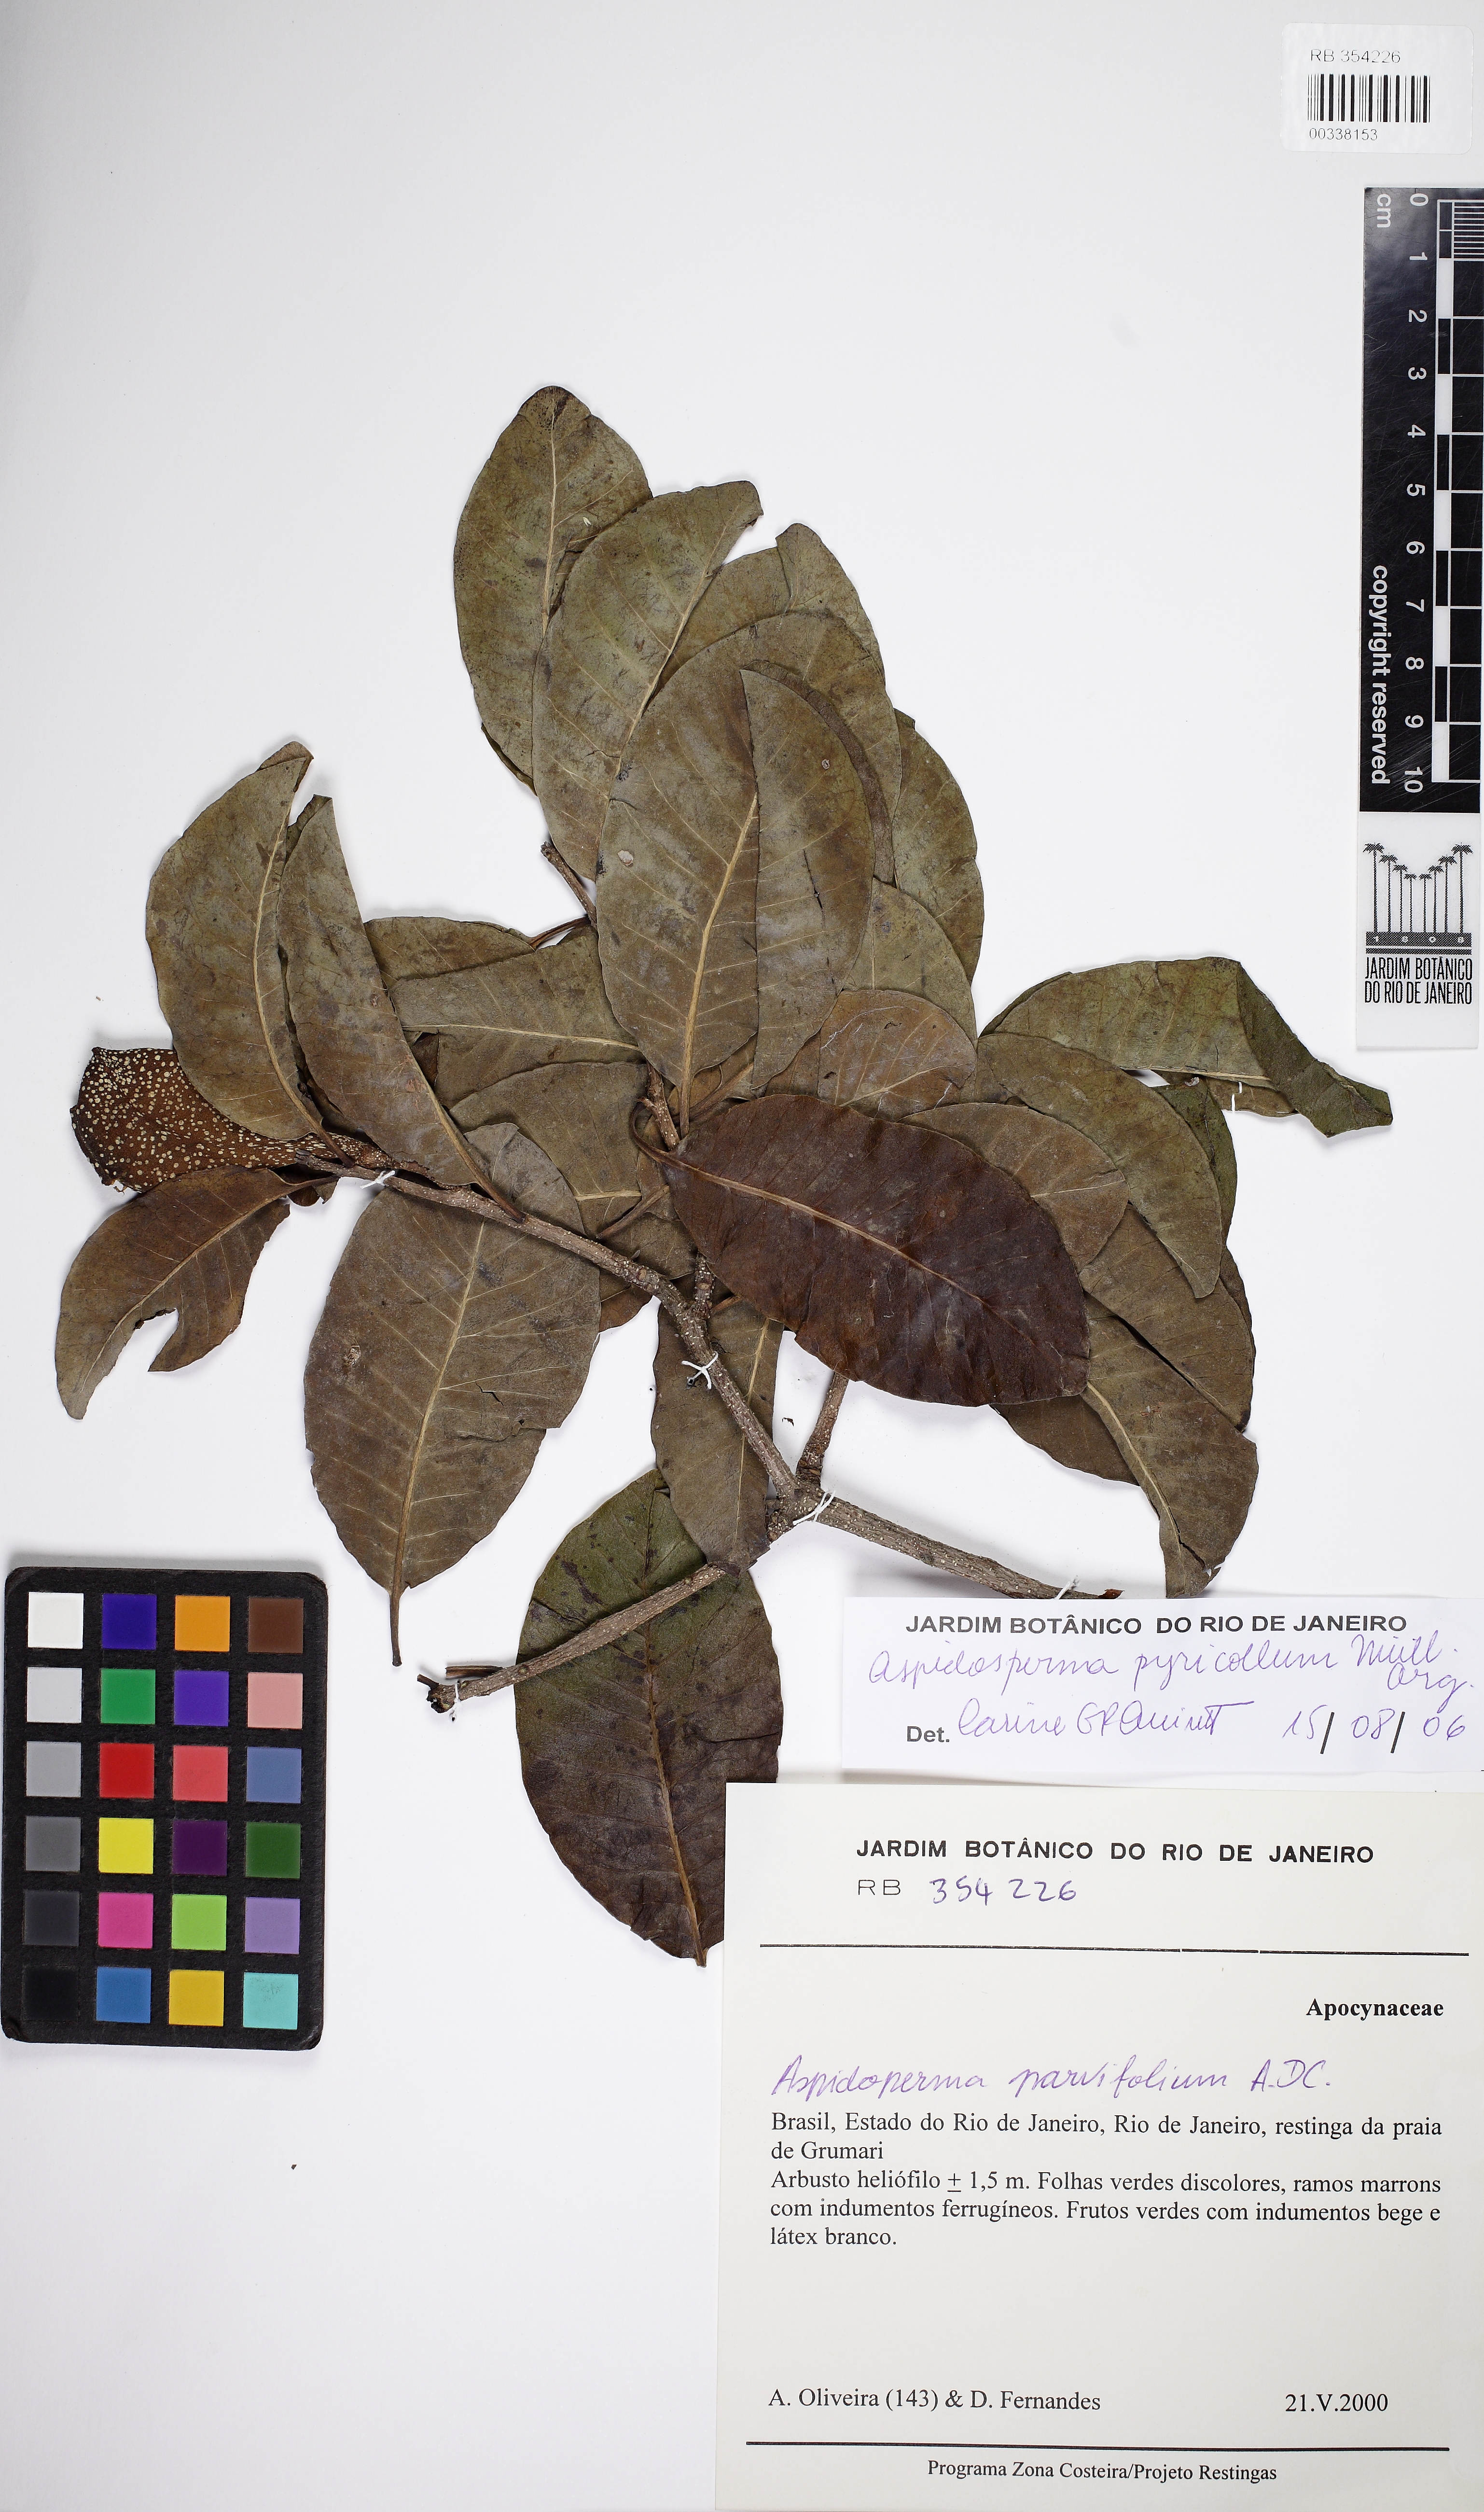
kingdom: Plantae
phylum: Tracheophyta
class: Magnoliopsida
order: Gentianales
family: Apocynaceae
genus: Aspidosperma
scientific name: Aspidosperma pyricollum
